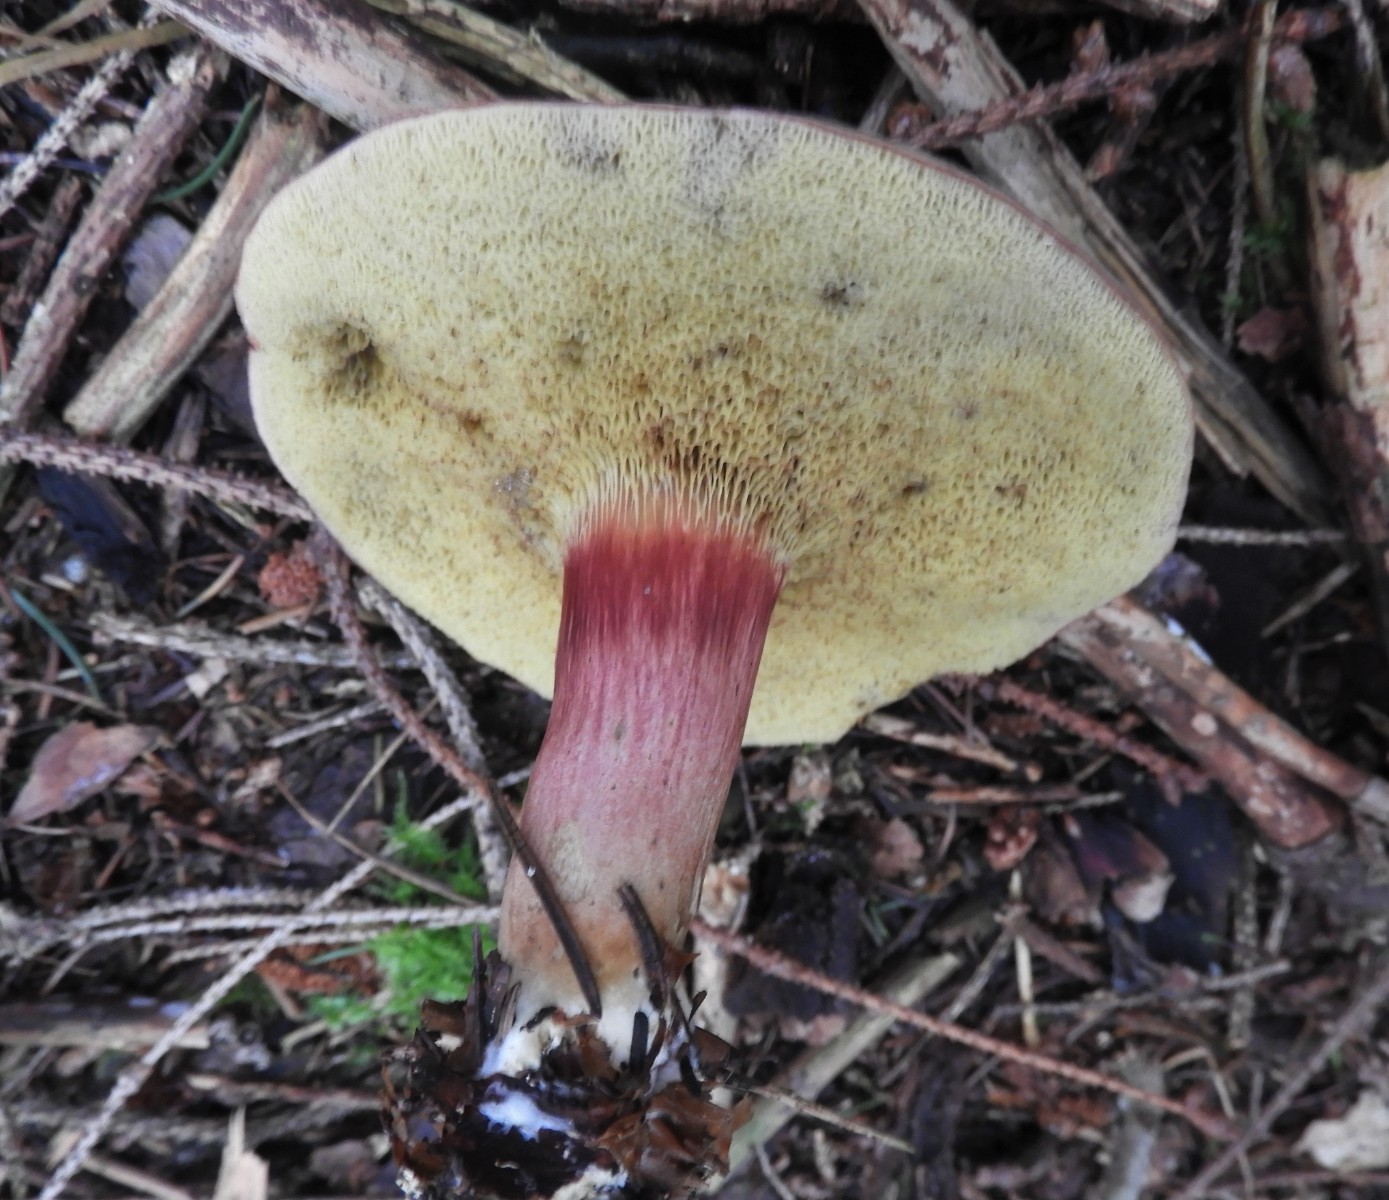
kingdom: Fungi
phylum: Basidiomycota
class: Agaricomycetes
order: Boletales
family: Boletaceae
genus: Xerocomellus
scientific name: Xerocomellus pruinatus
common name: dugget rørhat
